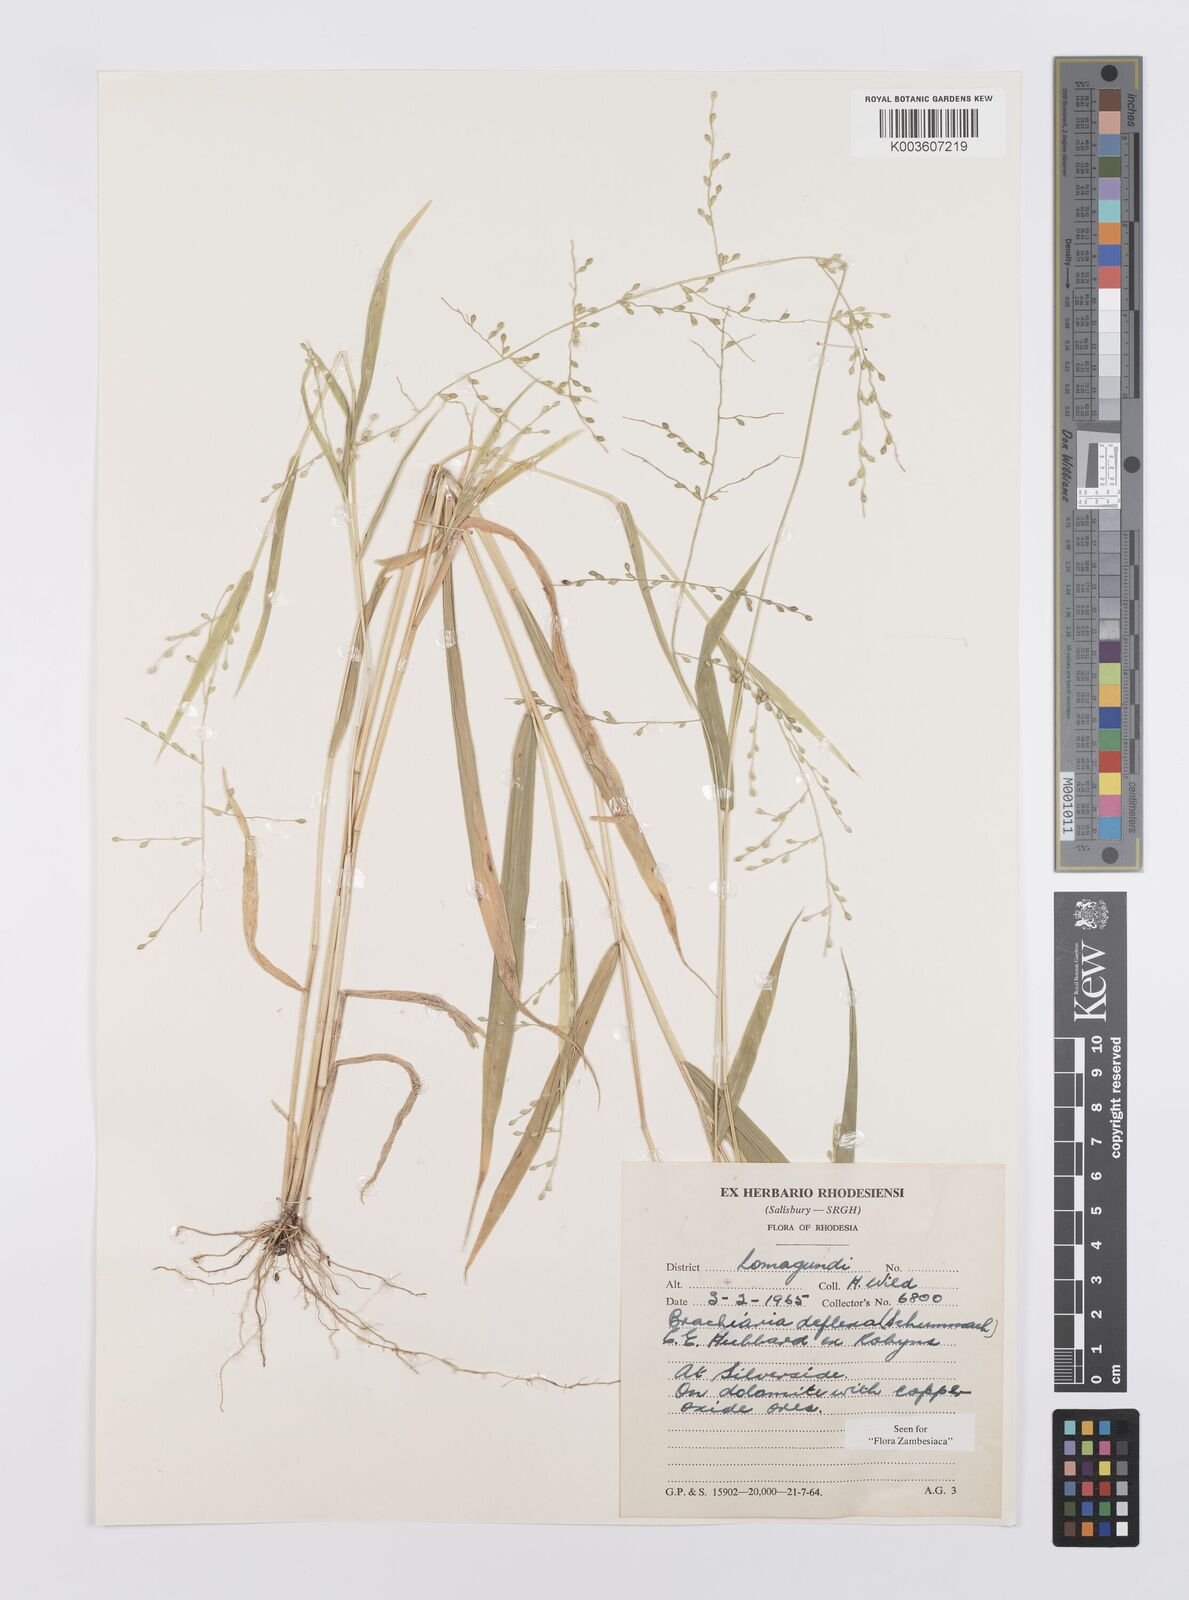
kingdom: Plantae
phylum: Tracheophyta
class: Liliopsida
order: Poales
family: Poaceae
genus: Urochloa
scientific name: Urochloa deflexa
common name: Guinea millet
